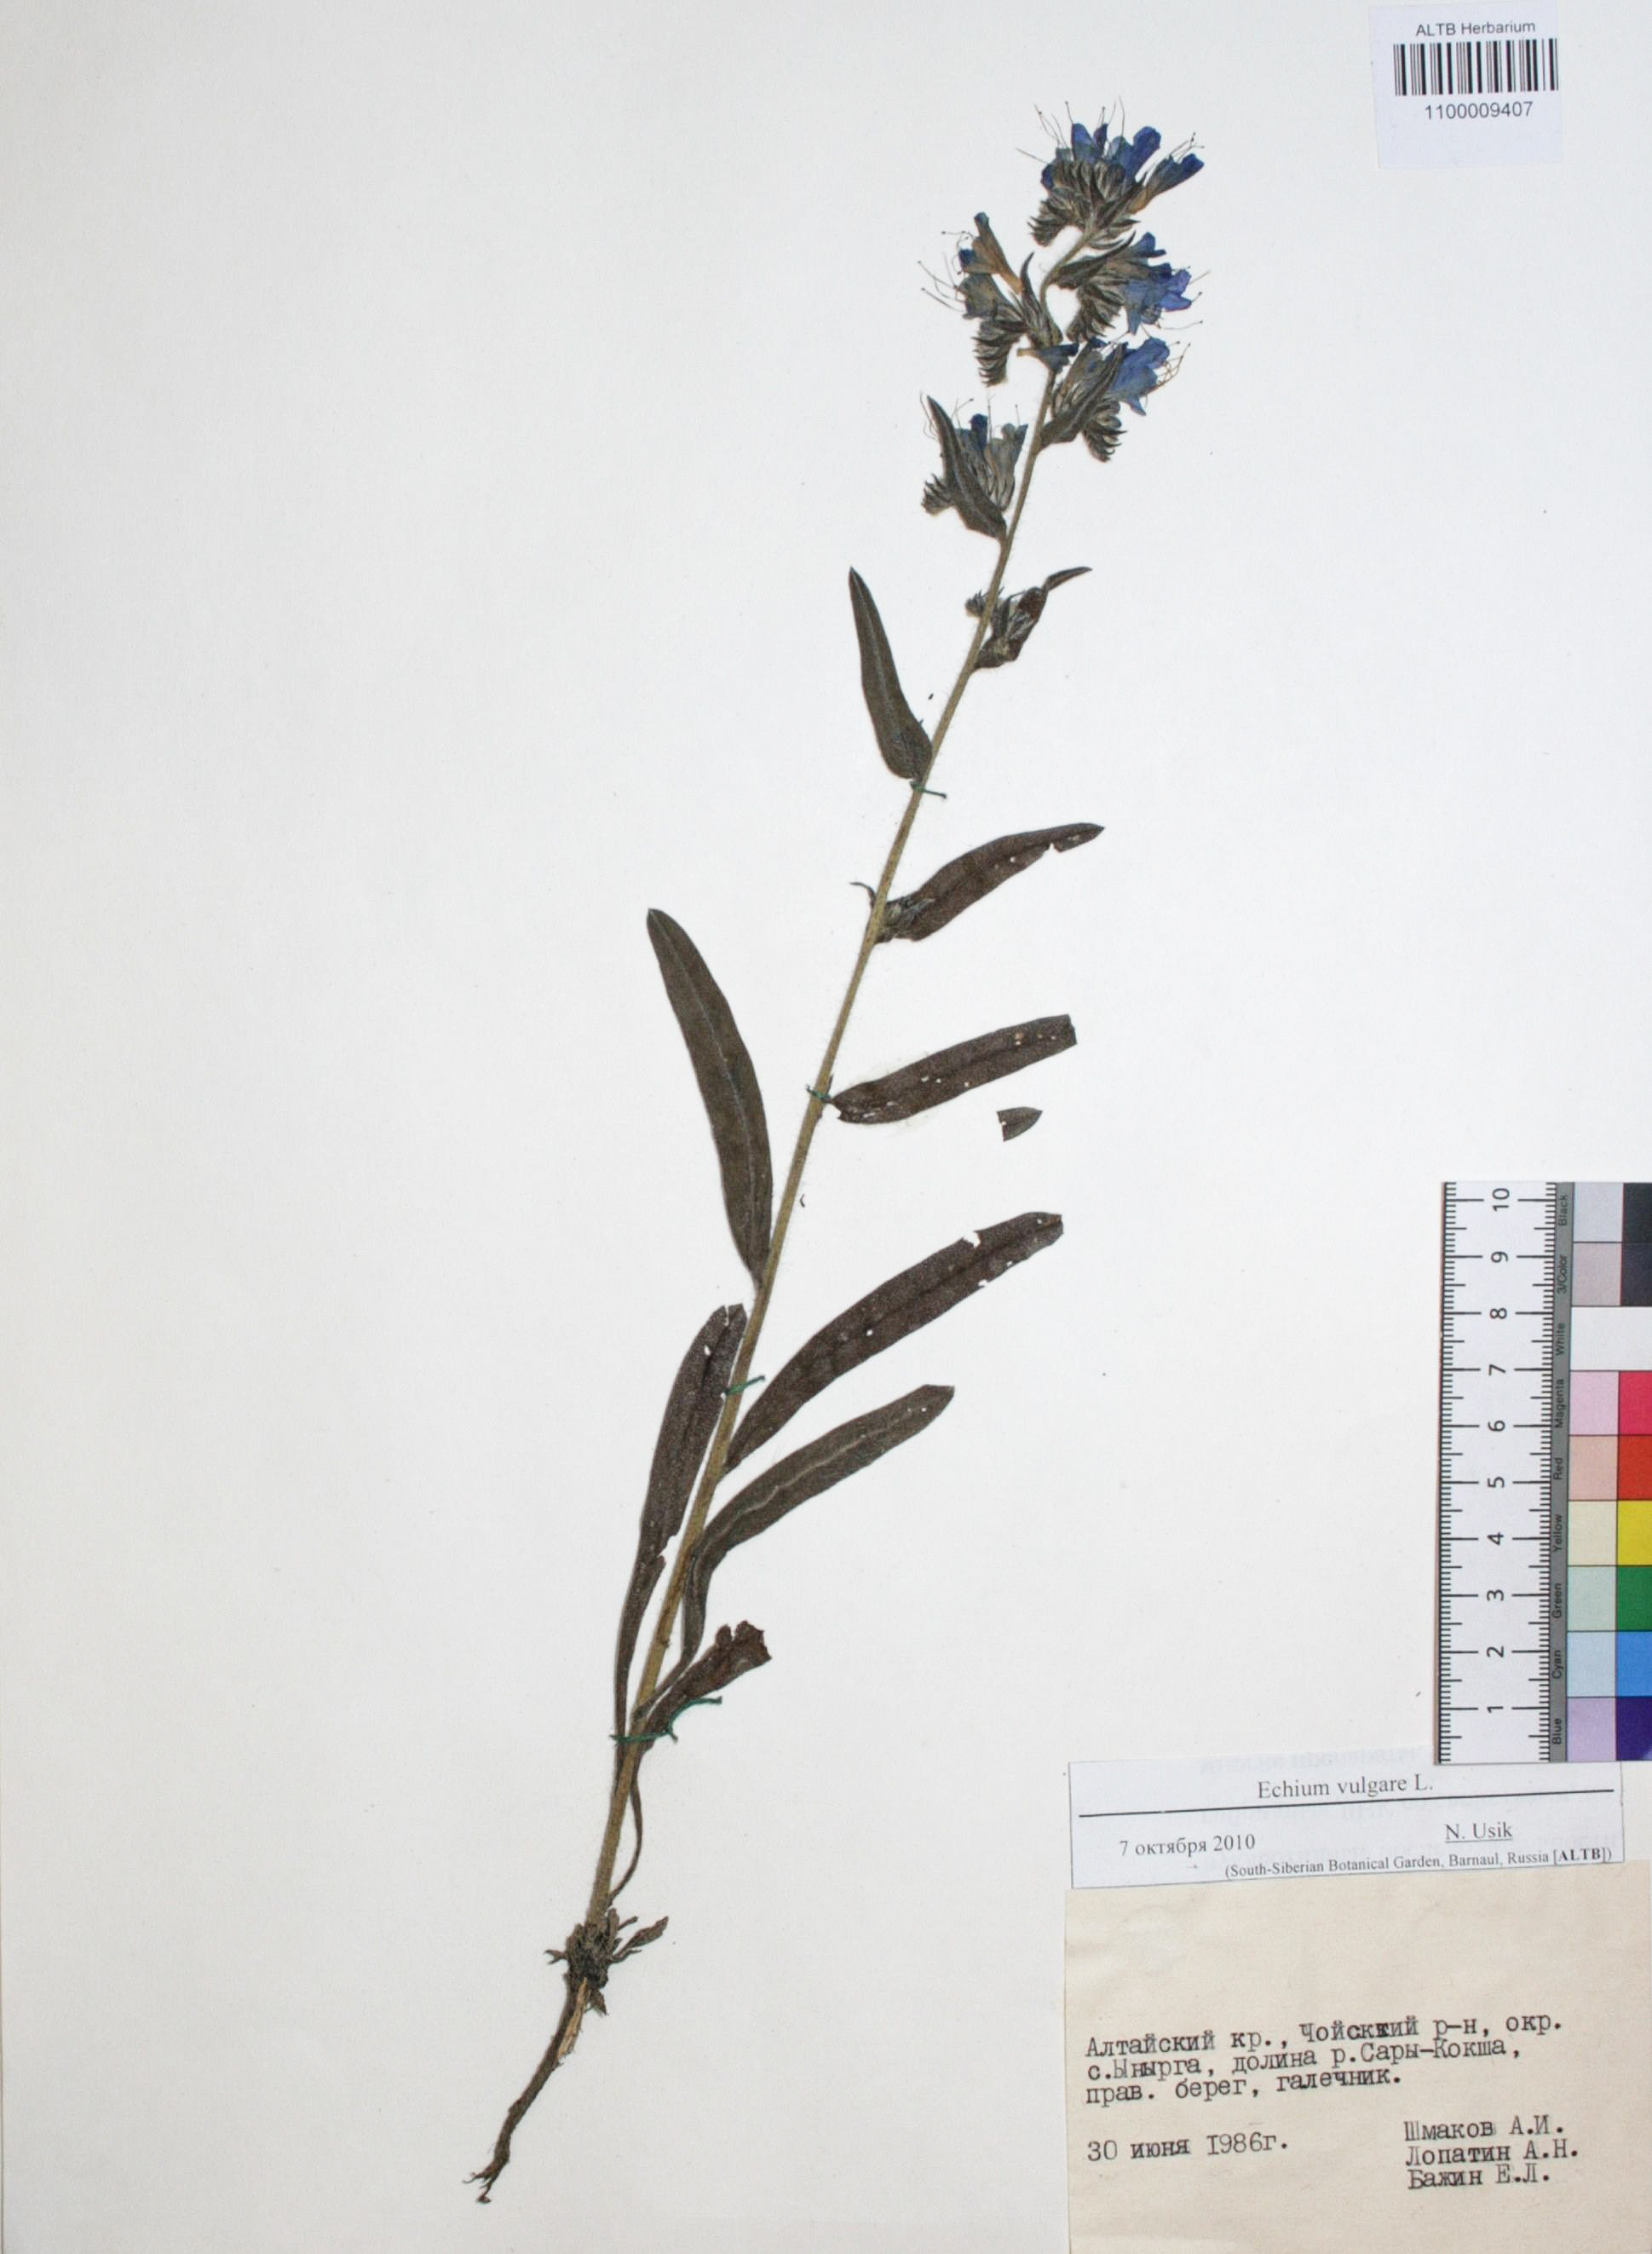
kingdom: Plantae
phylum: Tracheophyta
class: Magnoliopsida
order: Boraginales
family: Boraginaceae
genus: Echium
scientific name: Echium vulgare
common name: Common viper's bugloss
